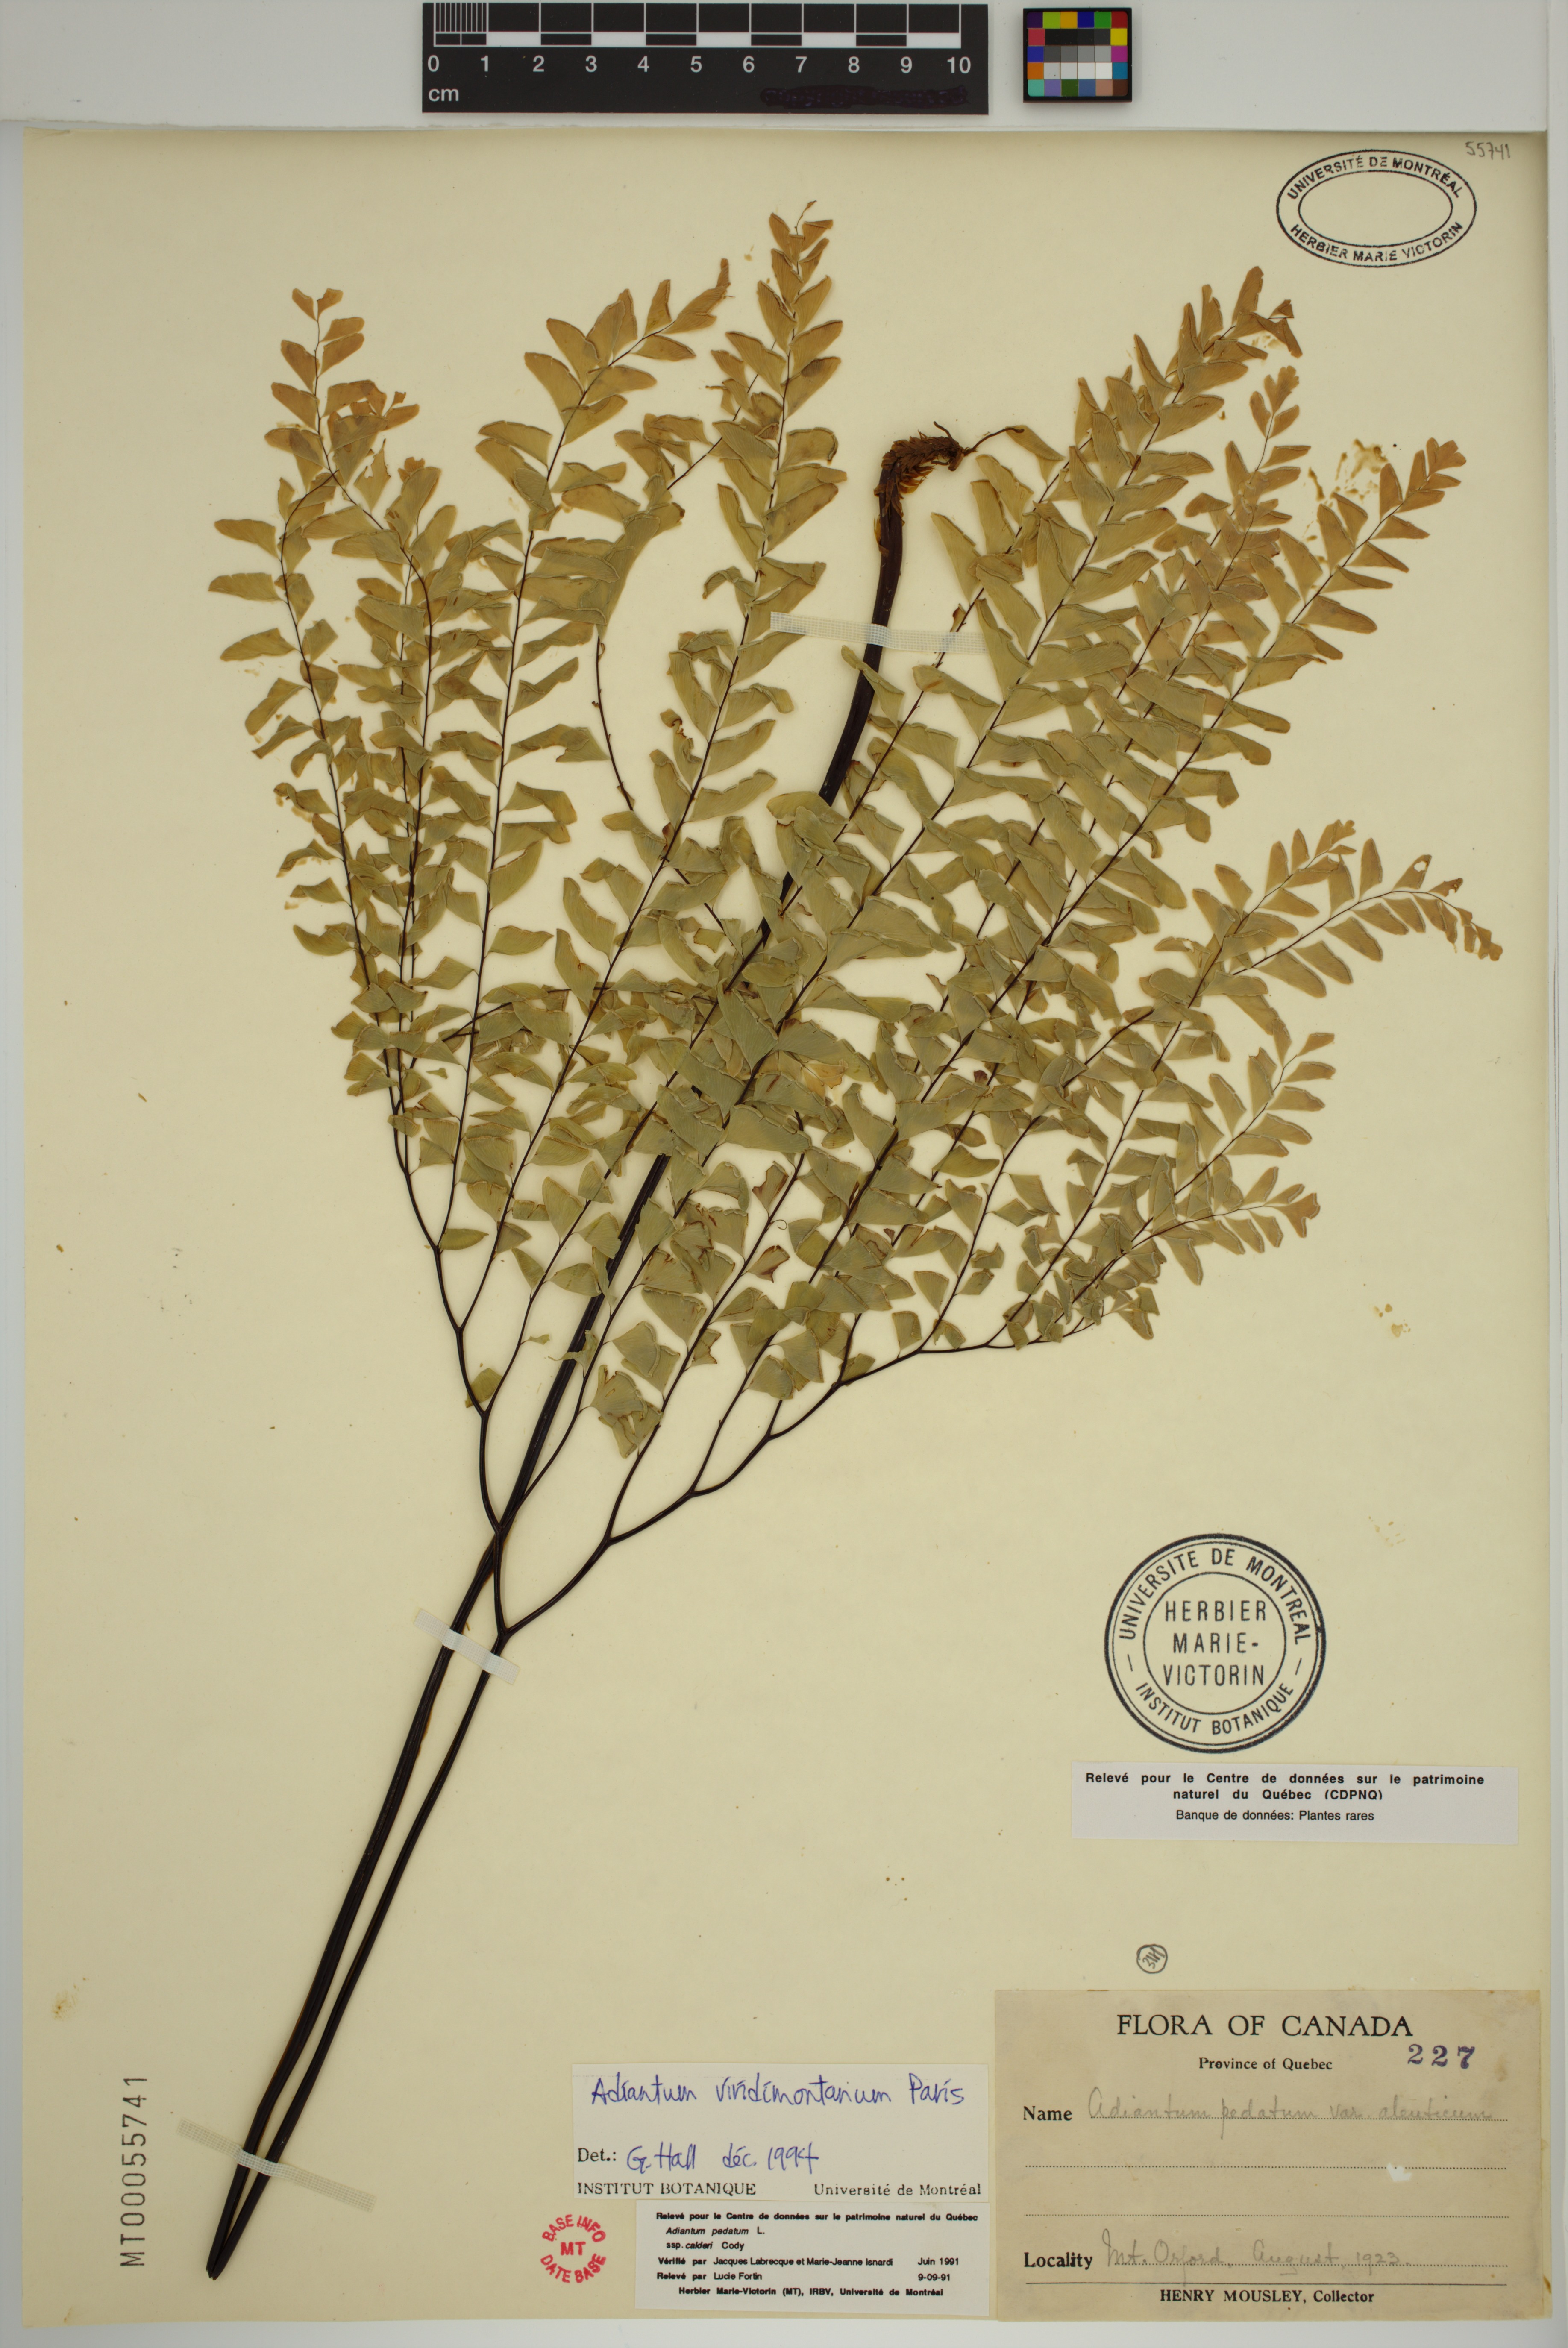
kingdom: Plantae
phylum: Tracheophyta
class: Polypodiopsida
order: Polypodiales
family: Pteridaceae
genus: Adiantum
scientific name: Adiantum viridimontanum
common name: Green mountain maidenhair
